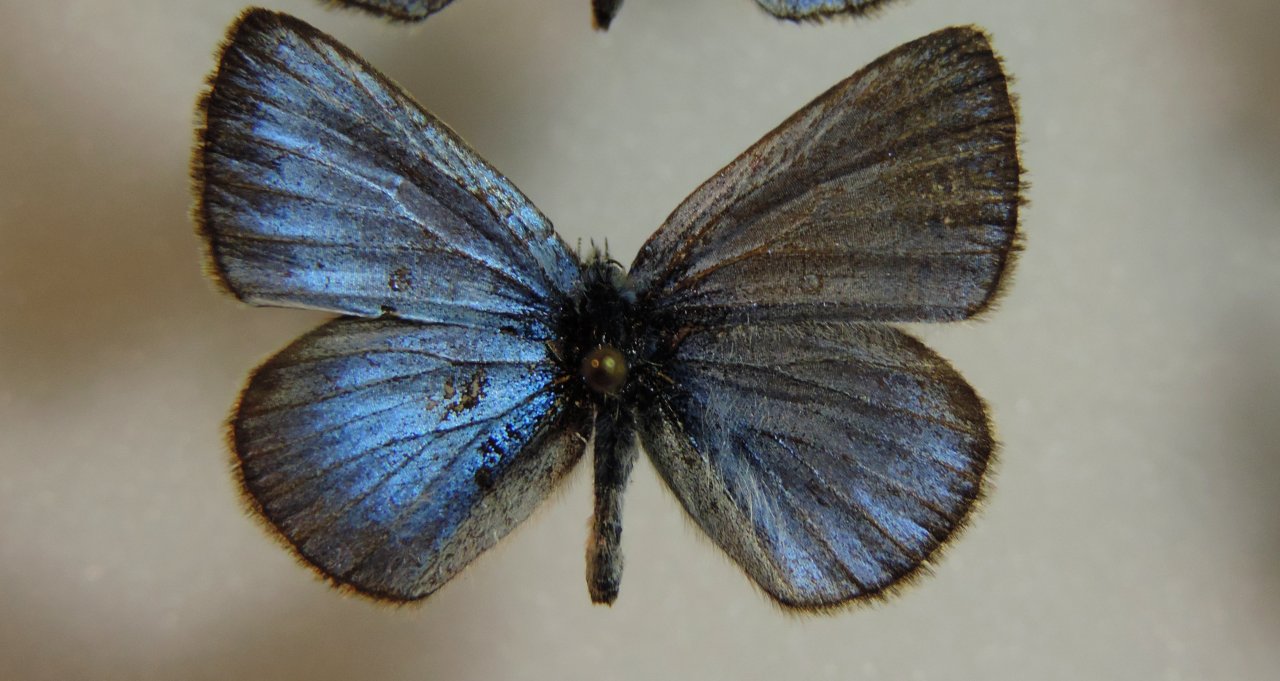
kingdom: Animalia
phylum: Arthropoda
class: Insecta
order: Lepidoptera
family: Lycaenidae
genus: Glaucopsyche
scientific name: Glaucopsyche lygdamus
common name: Silvery Blue
